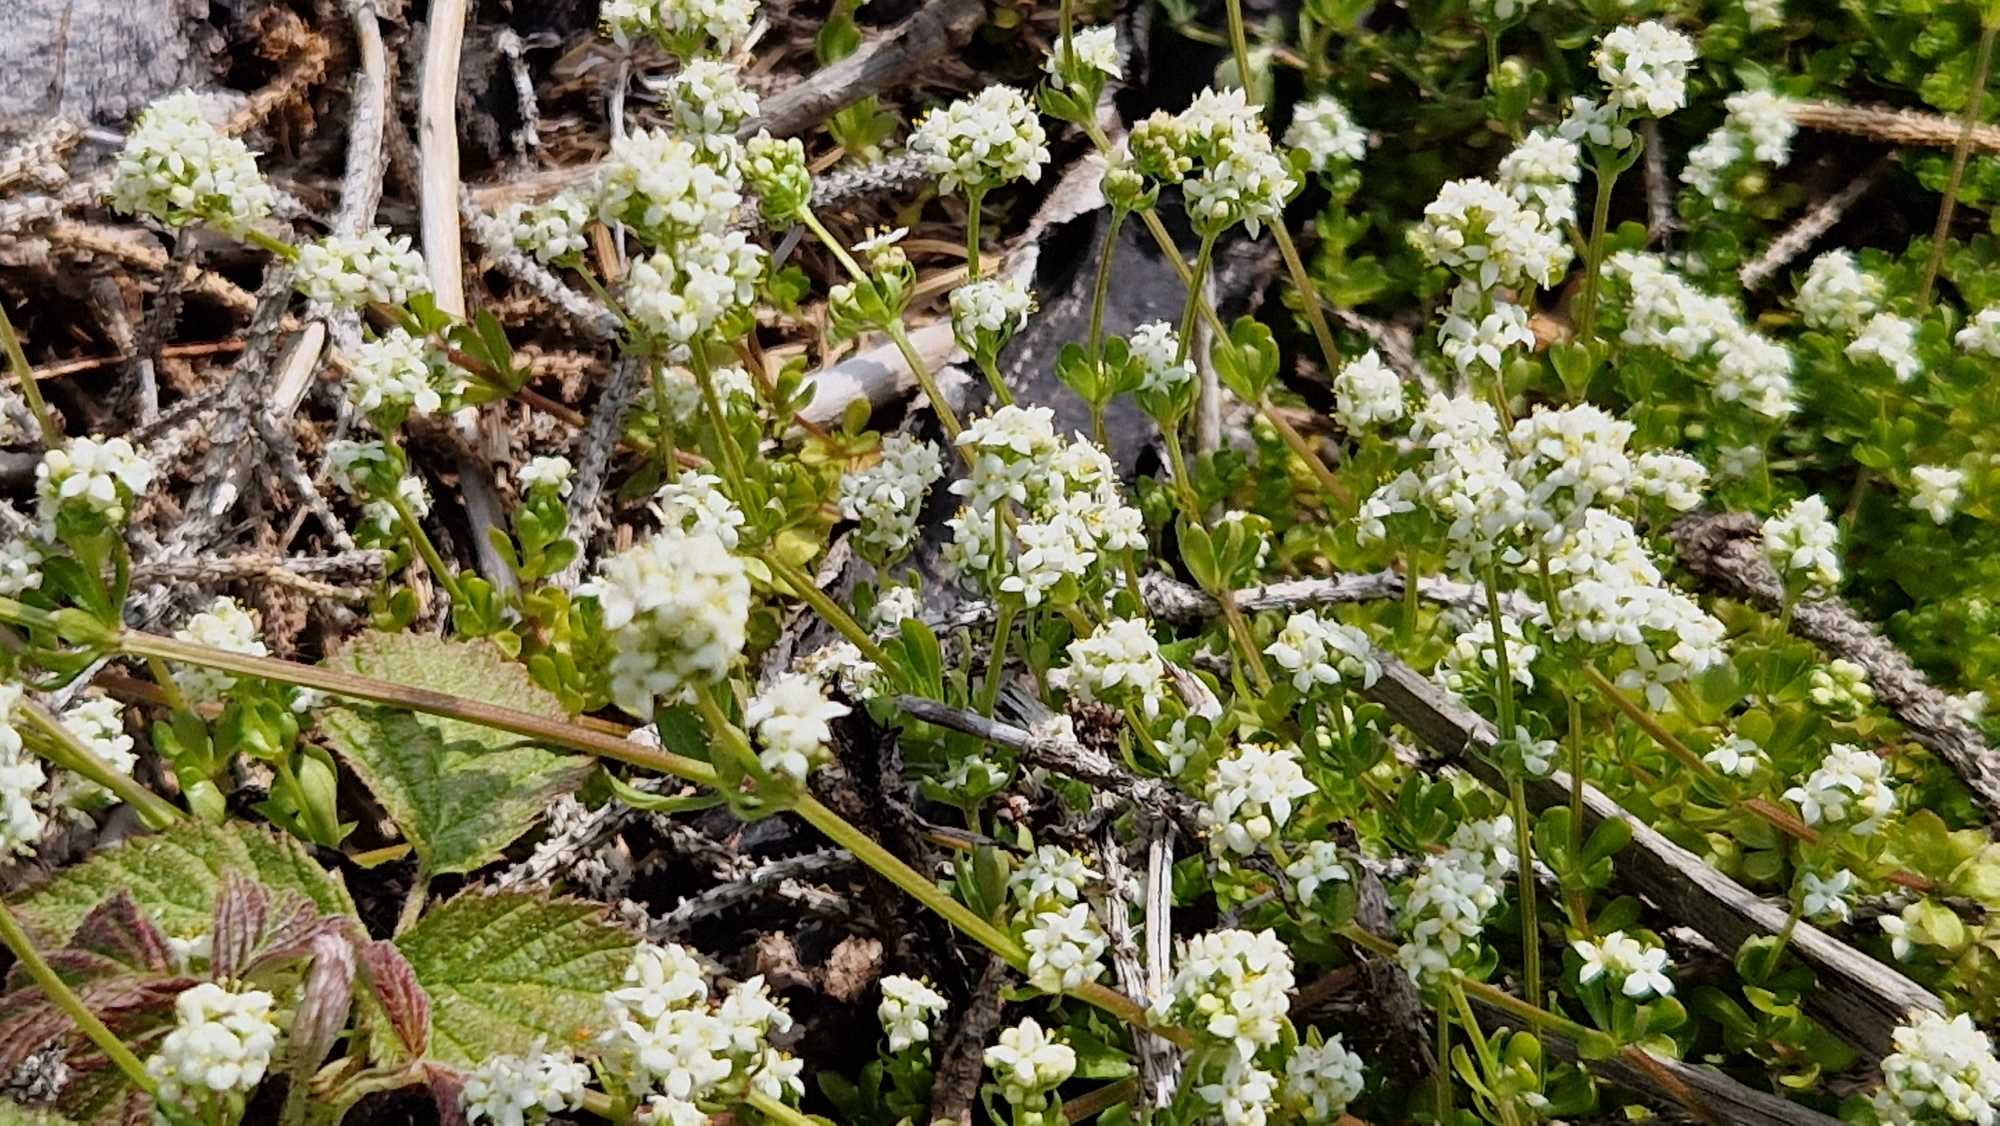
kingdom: Plantae
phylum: Tracheophyta
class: Magnoliopsida
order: Gentianales
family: Rubiaceae
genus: Galium
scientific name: Galium saxatile
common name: Lyng-snerre
